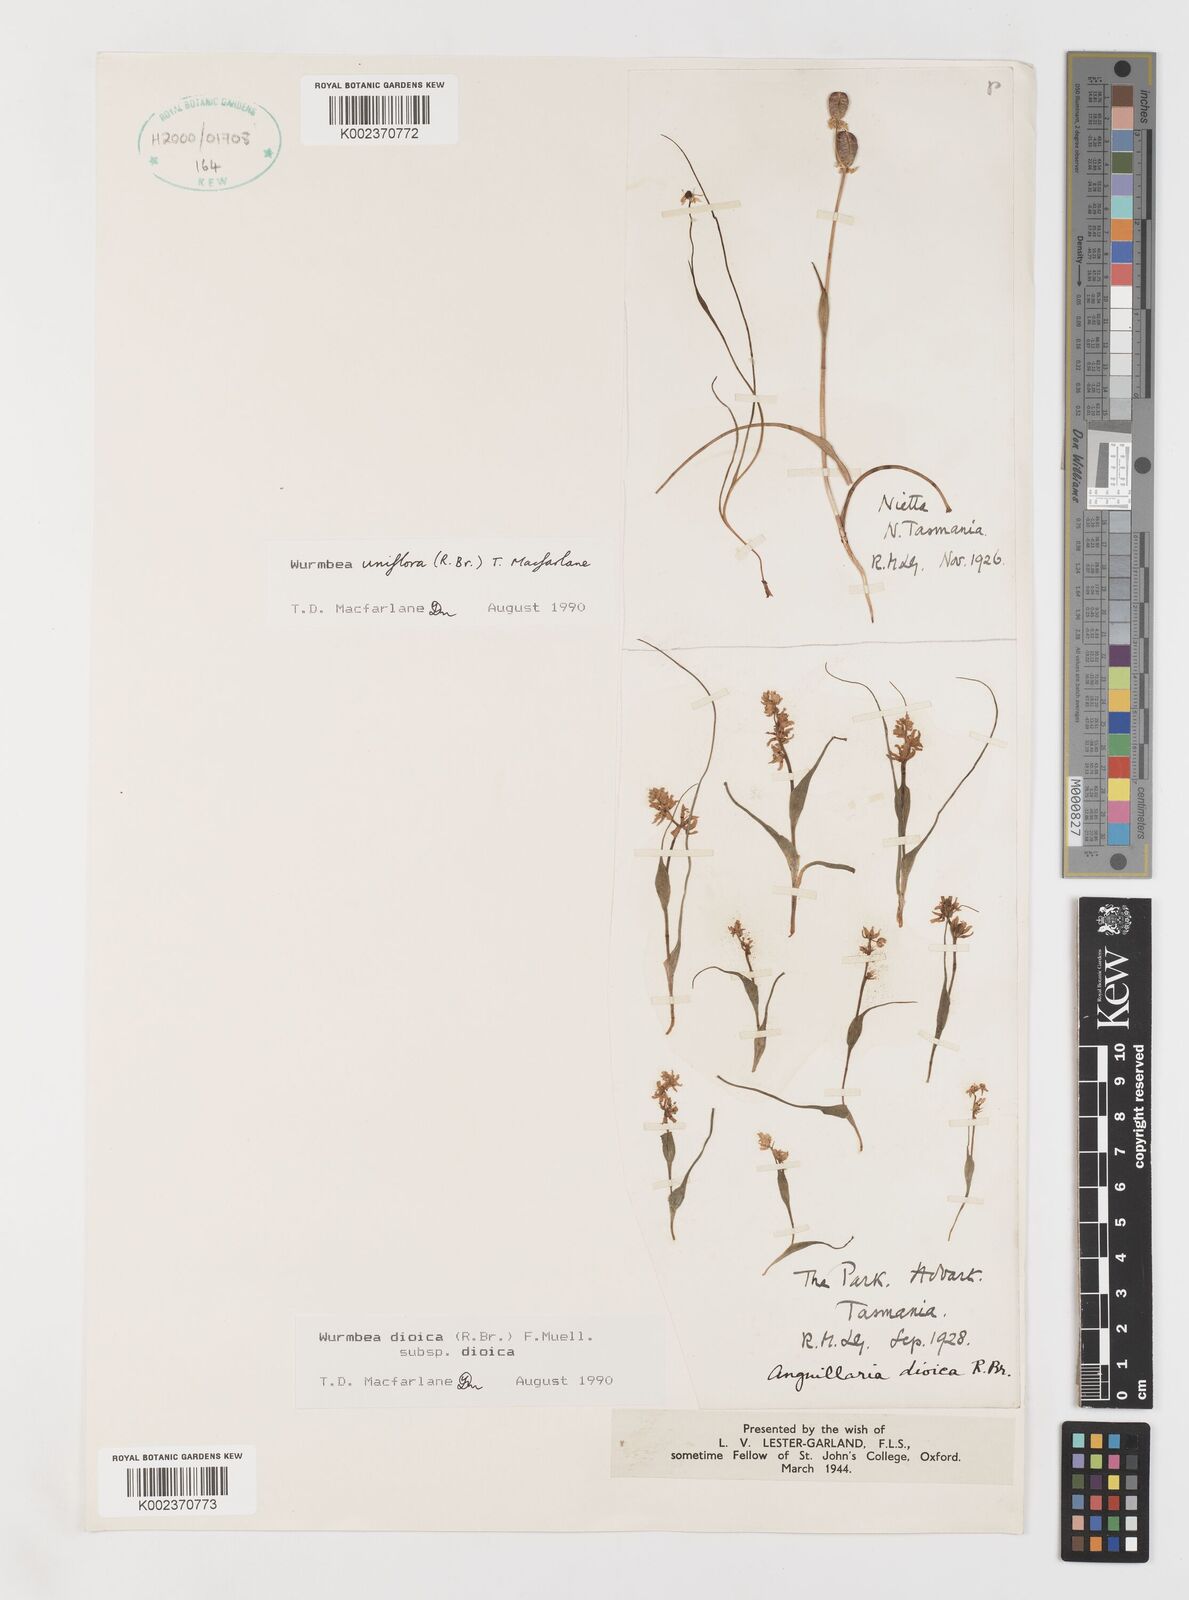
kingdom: Plantae
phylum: Tracheophyta
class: Liliopsida
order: Liliales
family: Colchicaceae
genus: Wurmbea
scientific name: Wurmbea uniflora
